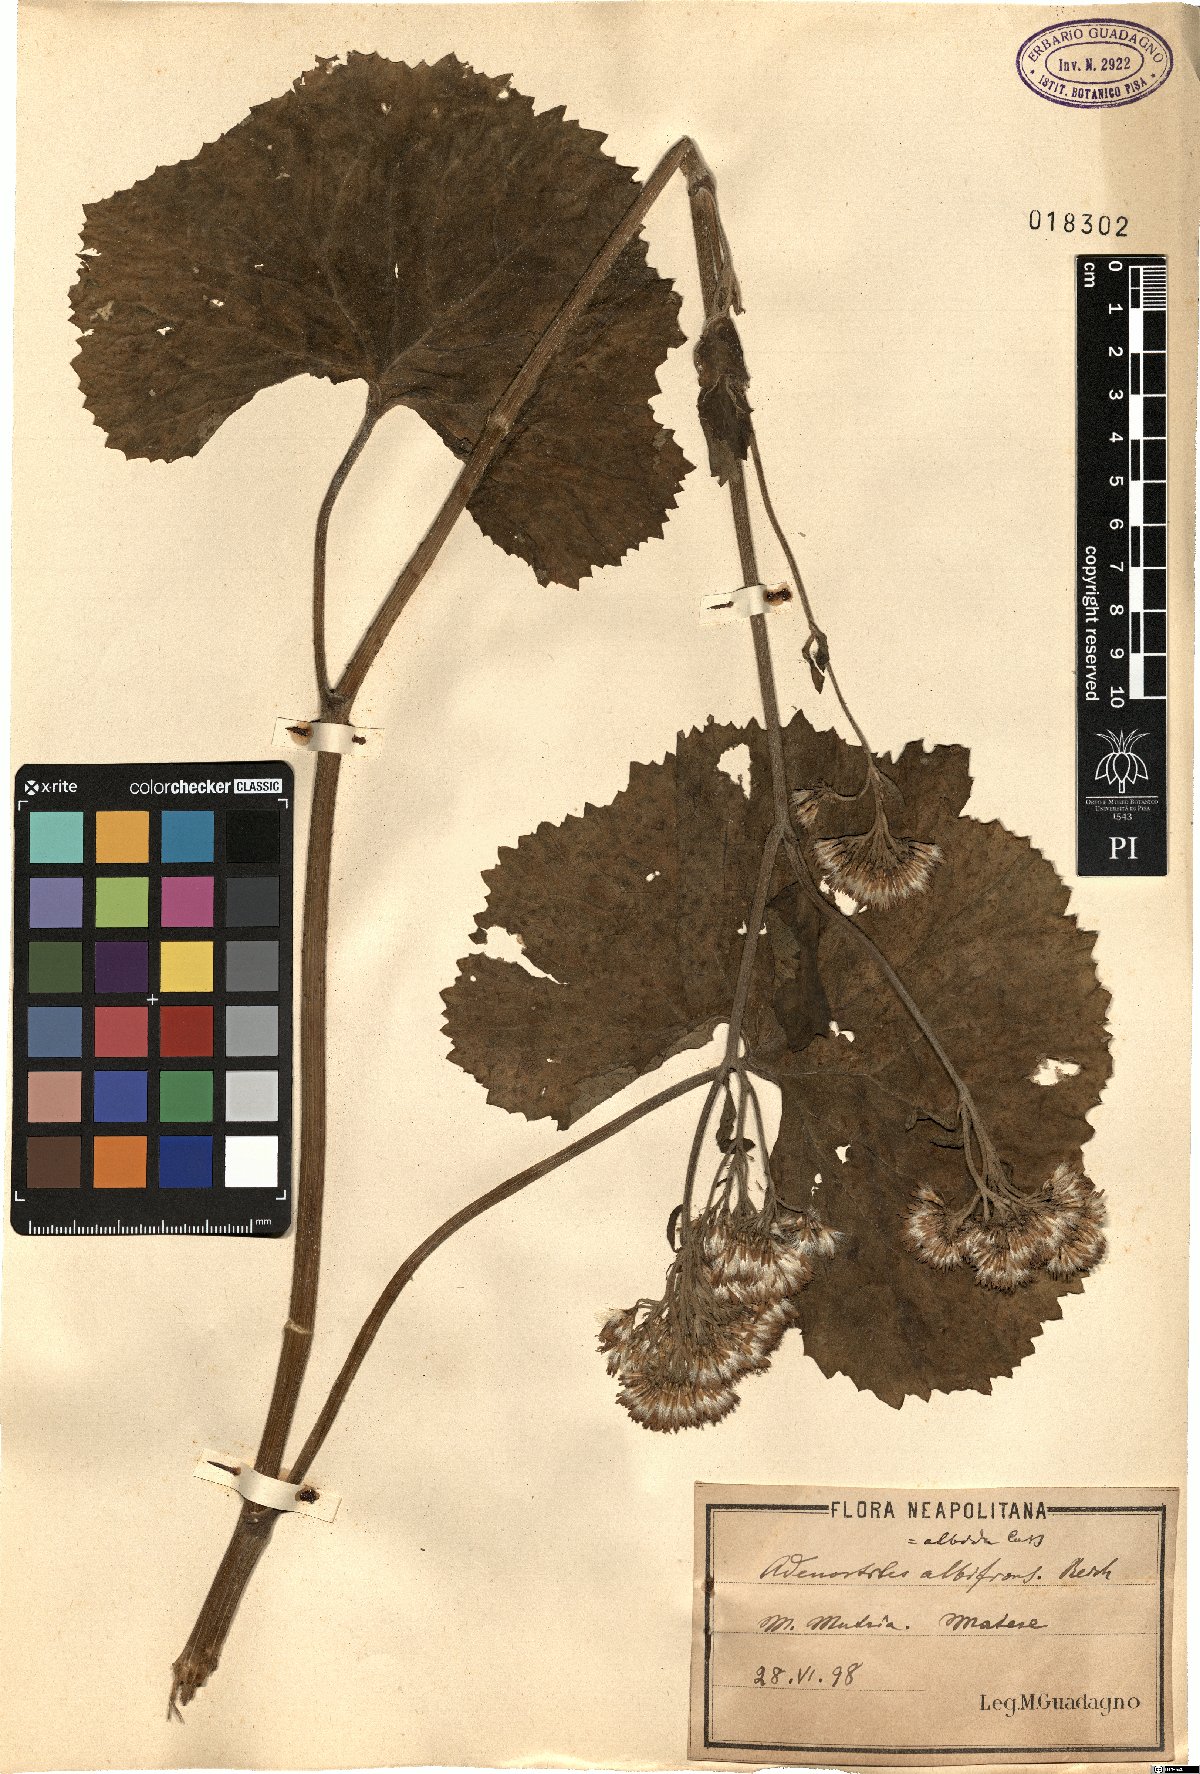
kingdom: Plantae
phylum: Tracheophyta
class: Magnoliopsida
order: Asterales
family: Asteraceae
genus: Adenostyles
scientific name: Adenostyles australis
